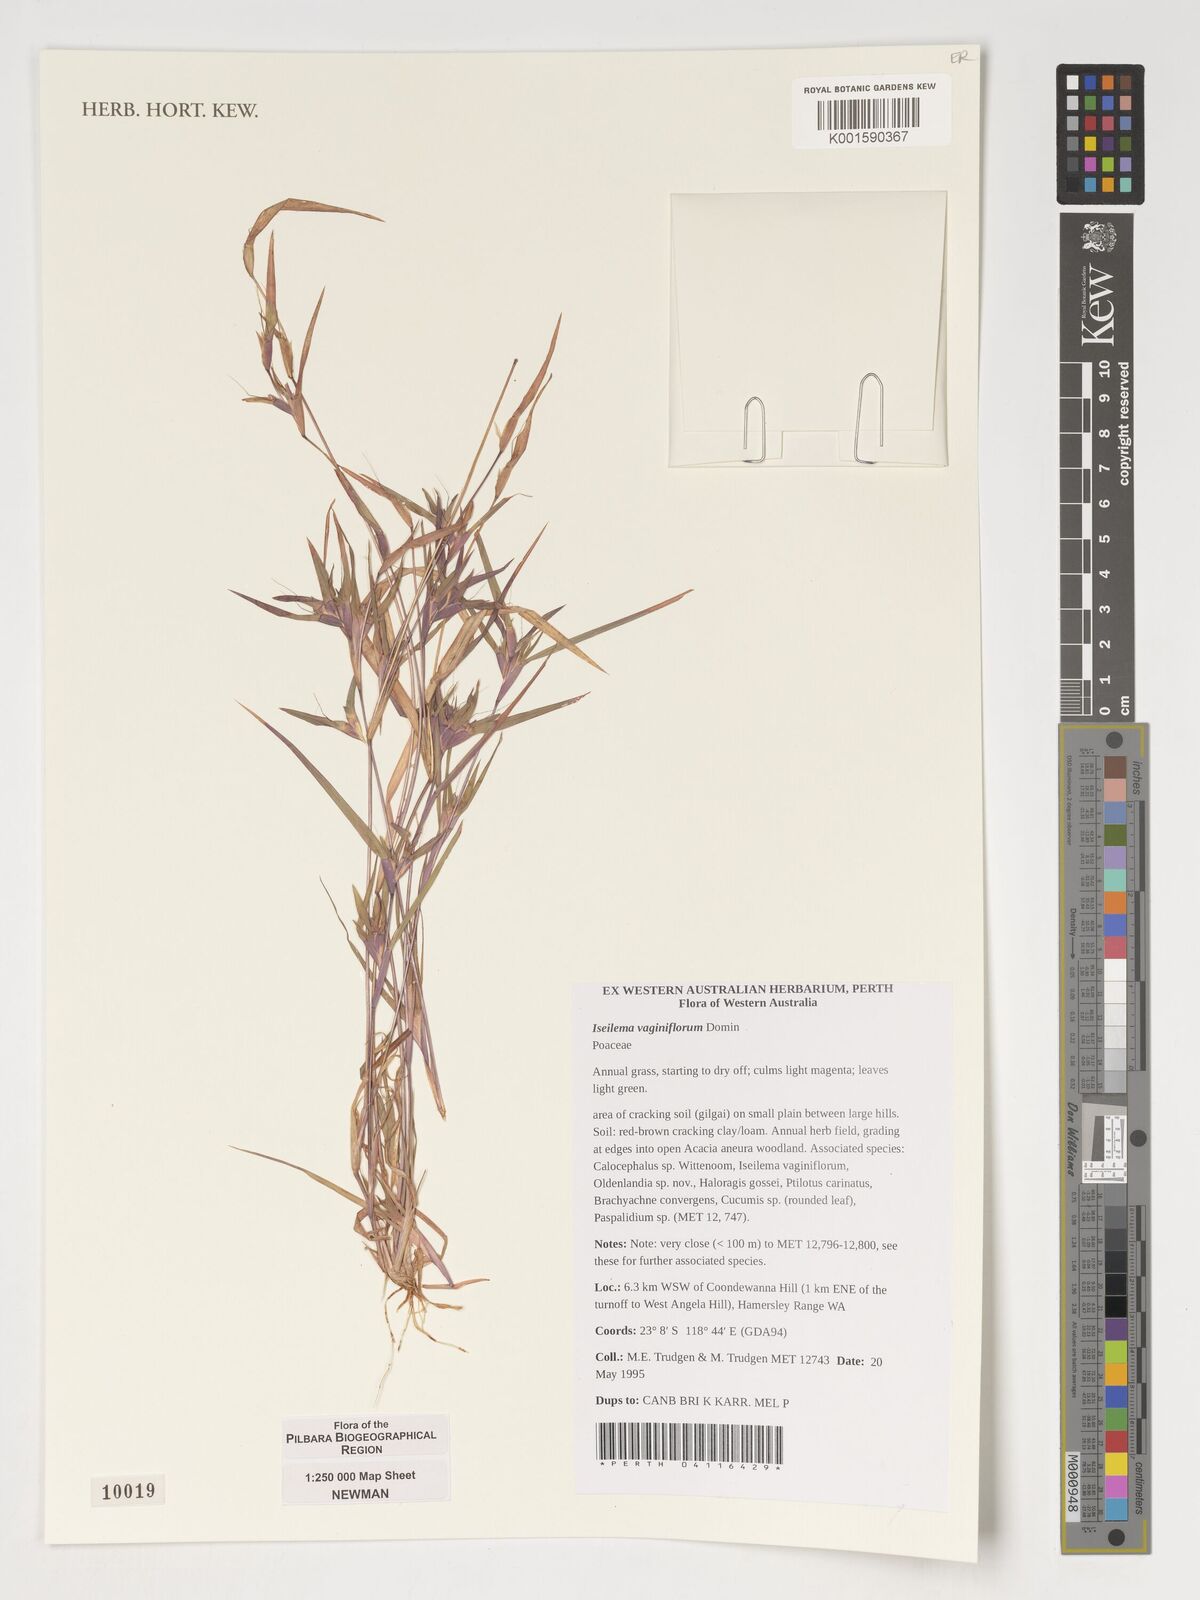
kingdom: Plantae
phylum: Tracheophyta
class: Liliopsida
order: Poales
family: Poaceae
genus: Iseilema
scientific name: Iseilema vaginiflorum
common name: Red flinders grass
